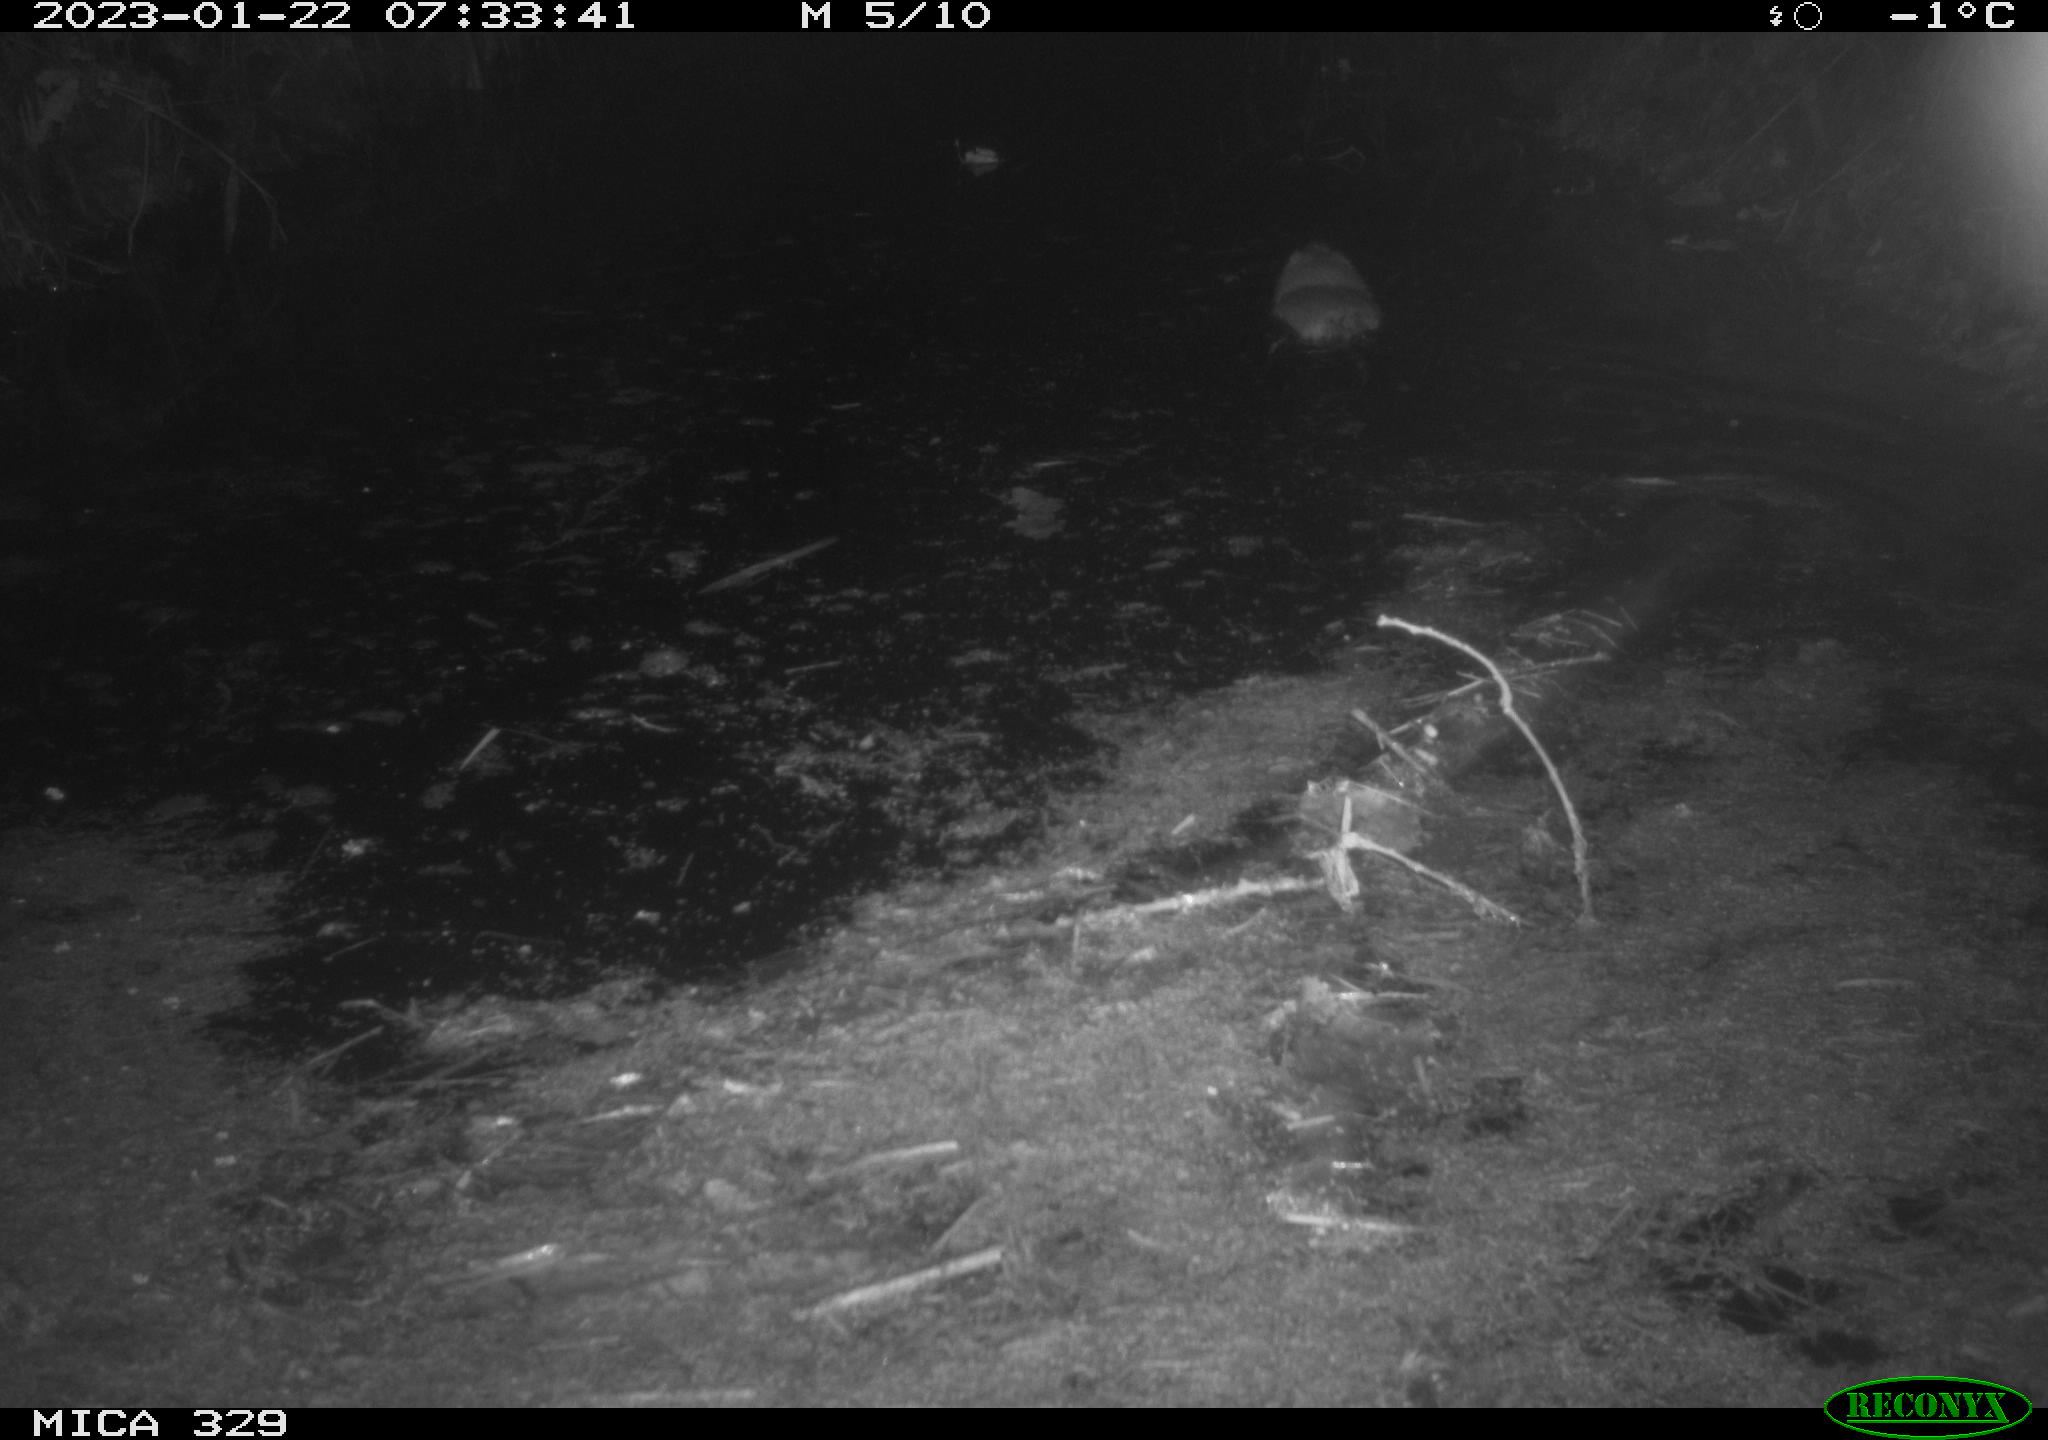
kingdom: Animalia
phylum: Chordata
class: Mammalia
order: Rodentia
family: Cricetidae
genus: Ondatra
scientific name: Ondatra zibethicus
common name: Muskrat
